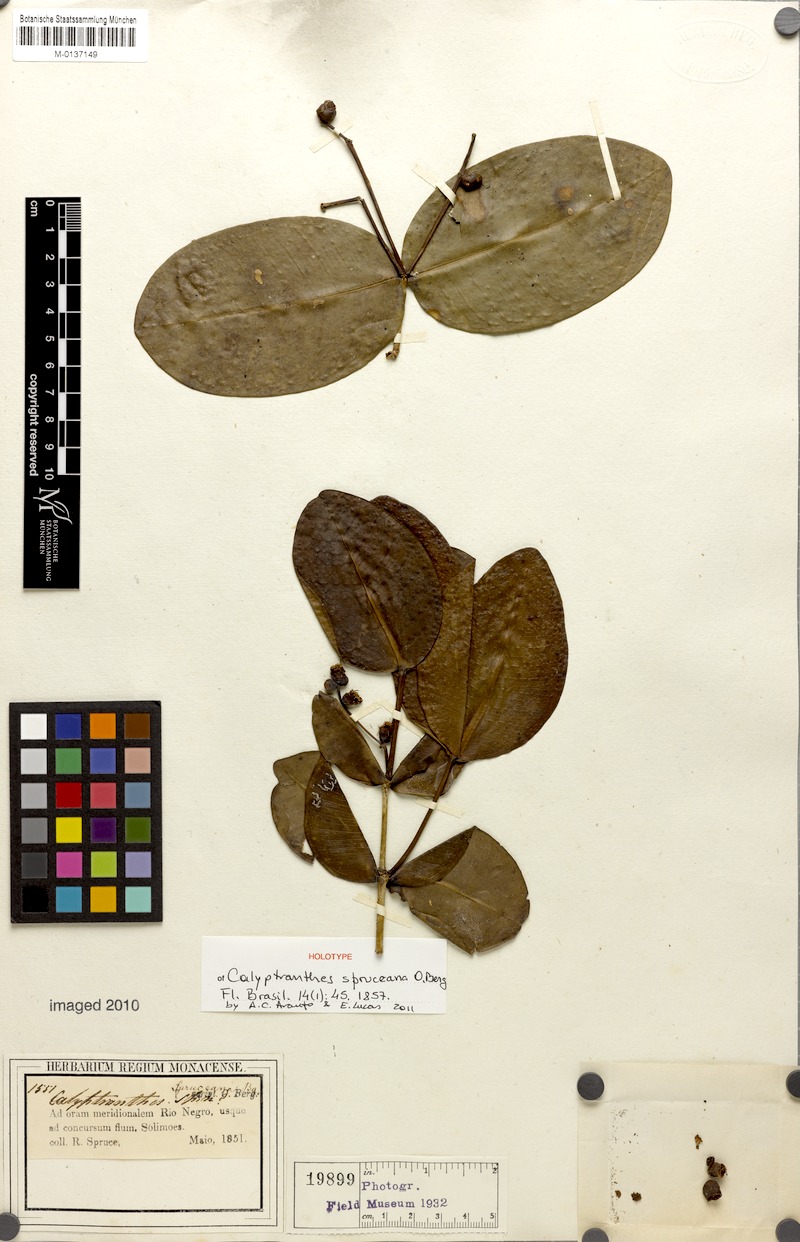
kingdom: Plantae
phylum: Tracheophyta
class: Magnoliopsida
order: Myrtales
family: Myrtaceae
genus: Myrcia
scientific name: Myrcia hedraiophylla
